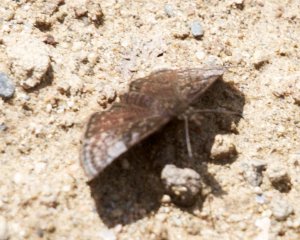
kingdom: Animalia
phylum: Arthropoda
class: Insecta
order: Lepidoptera
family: Hesperiidae
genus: Erynnis
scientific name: Erynnis icelus
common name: Dreamy Duskywing
